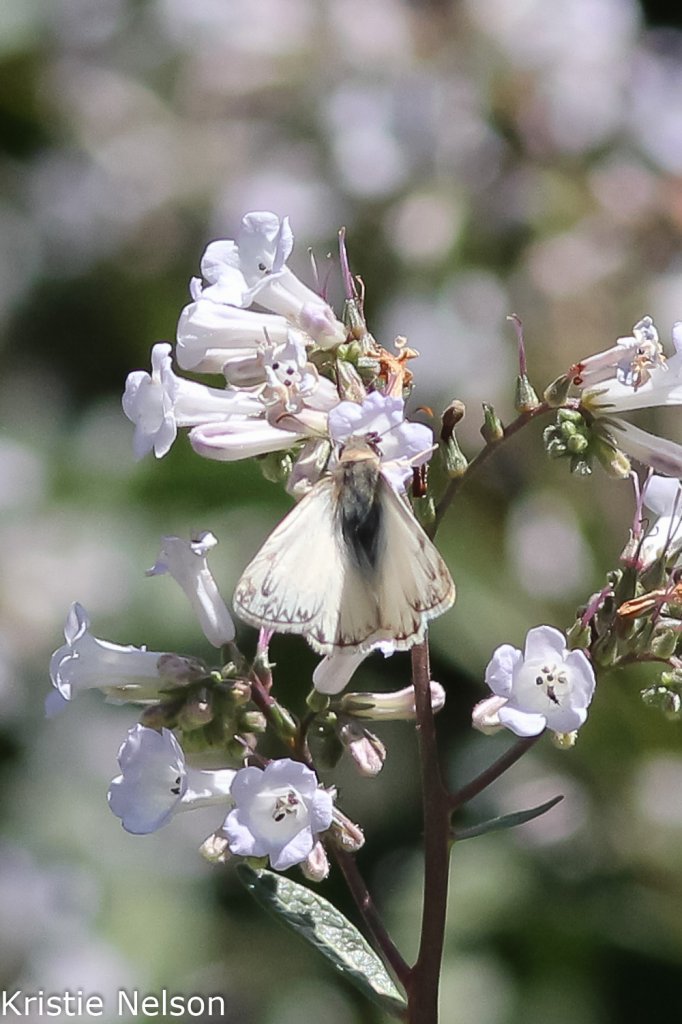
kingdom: Animalia
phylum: Arthropoda
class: Insecta
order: Lepidoptera
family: Hesperiidae
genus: Heliopetes
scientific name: Heliopetes ericetorum
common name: Northern White-Skipper
